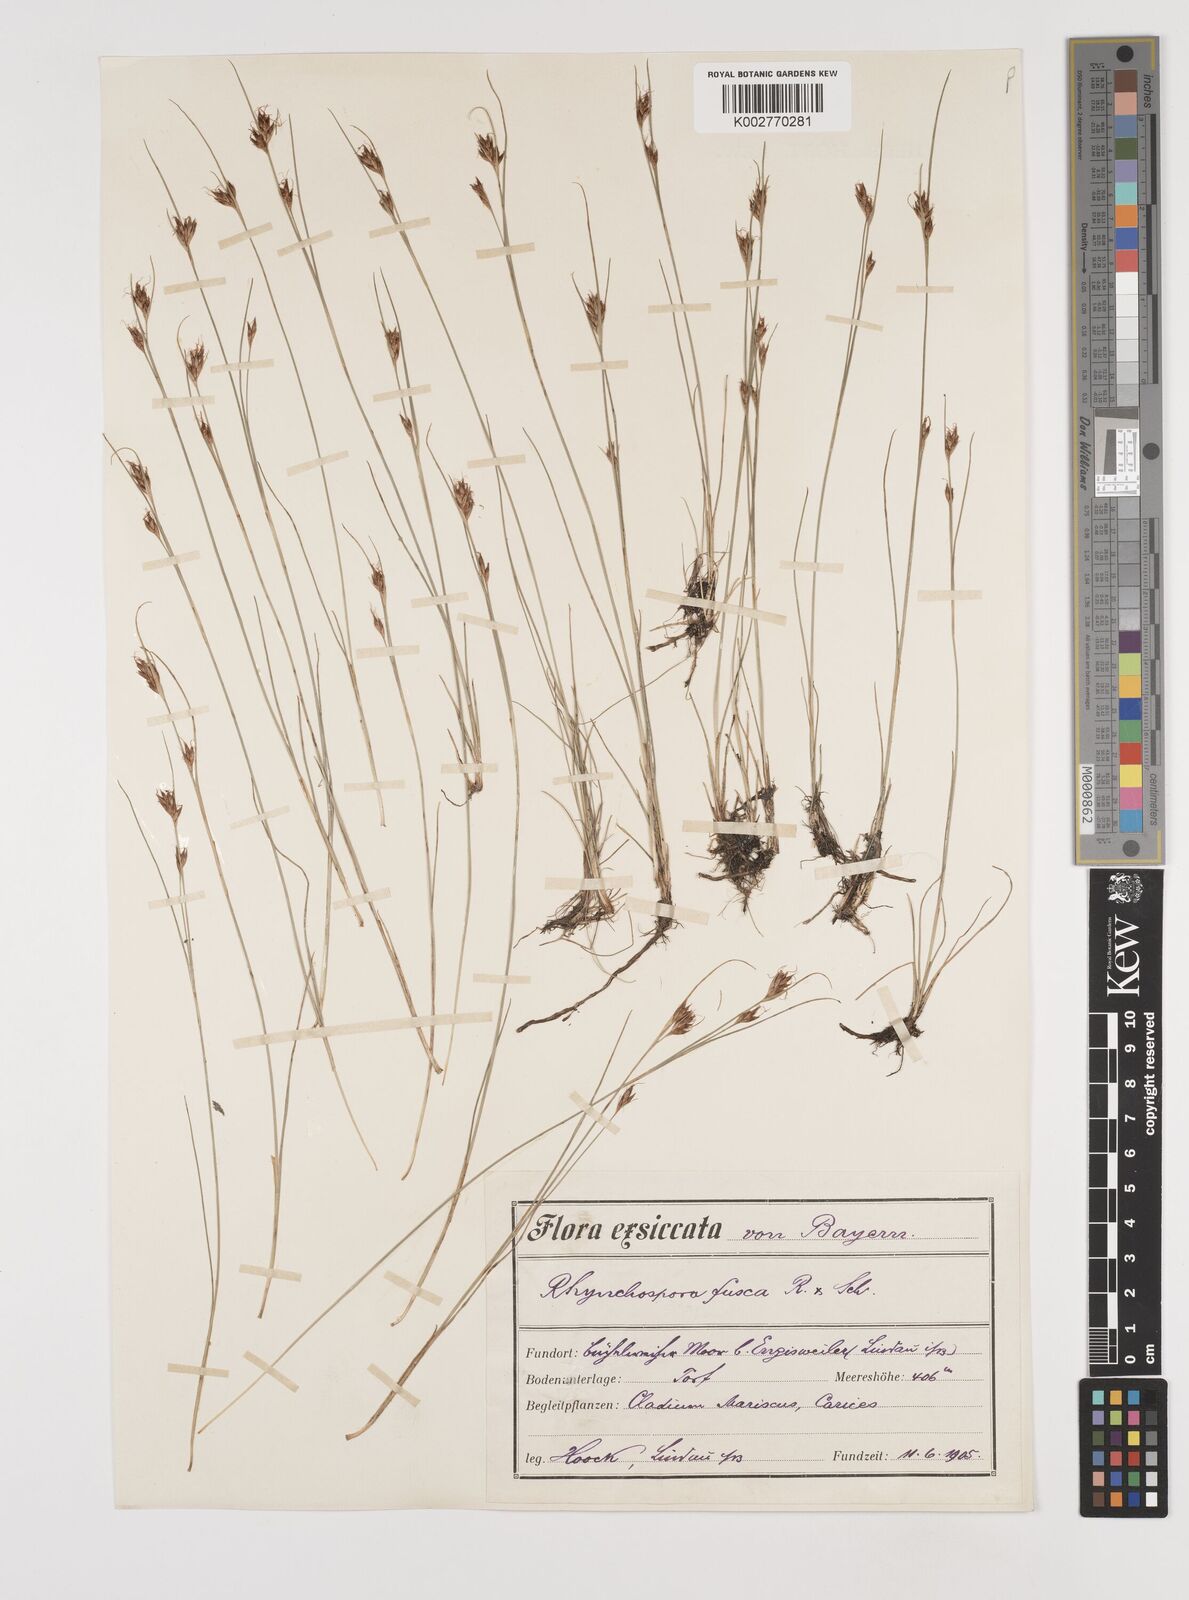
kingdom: Plantae
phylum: Tracheophyta
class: Liliopsida
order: Poales
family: Cyperaceae
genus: Rhynchospora
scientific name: Rhynchospora fusca
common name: Brown beak-sedge
